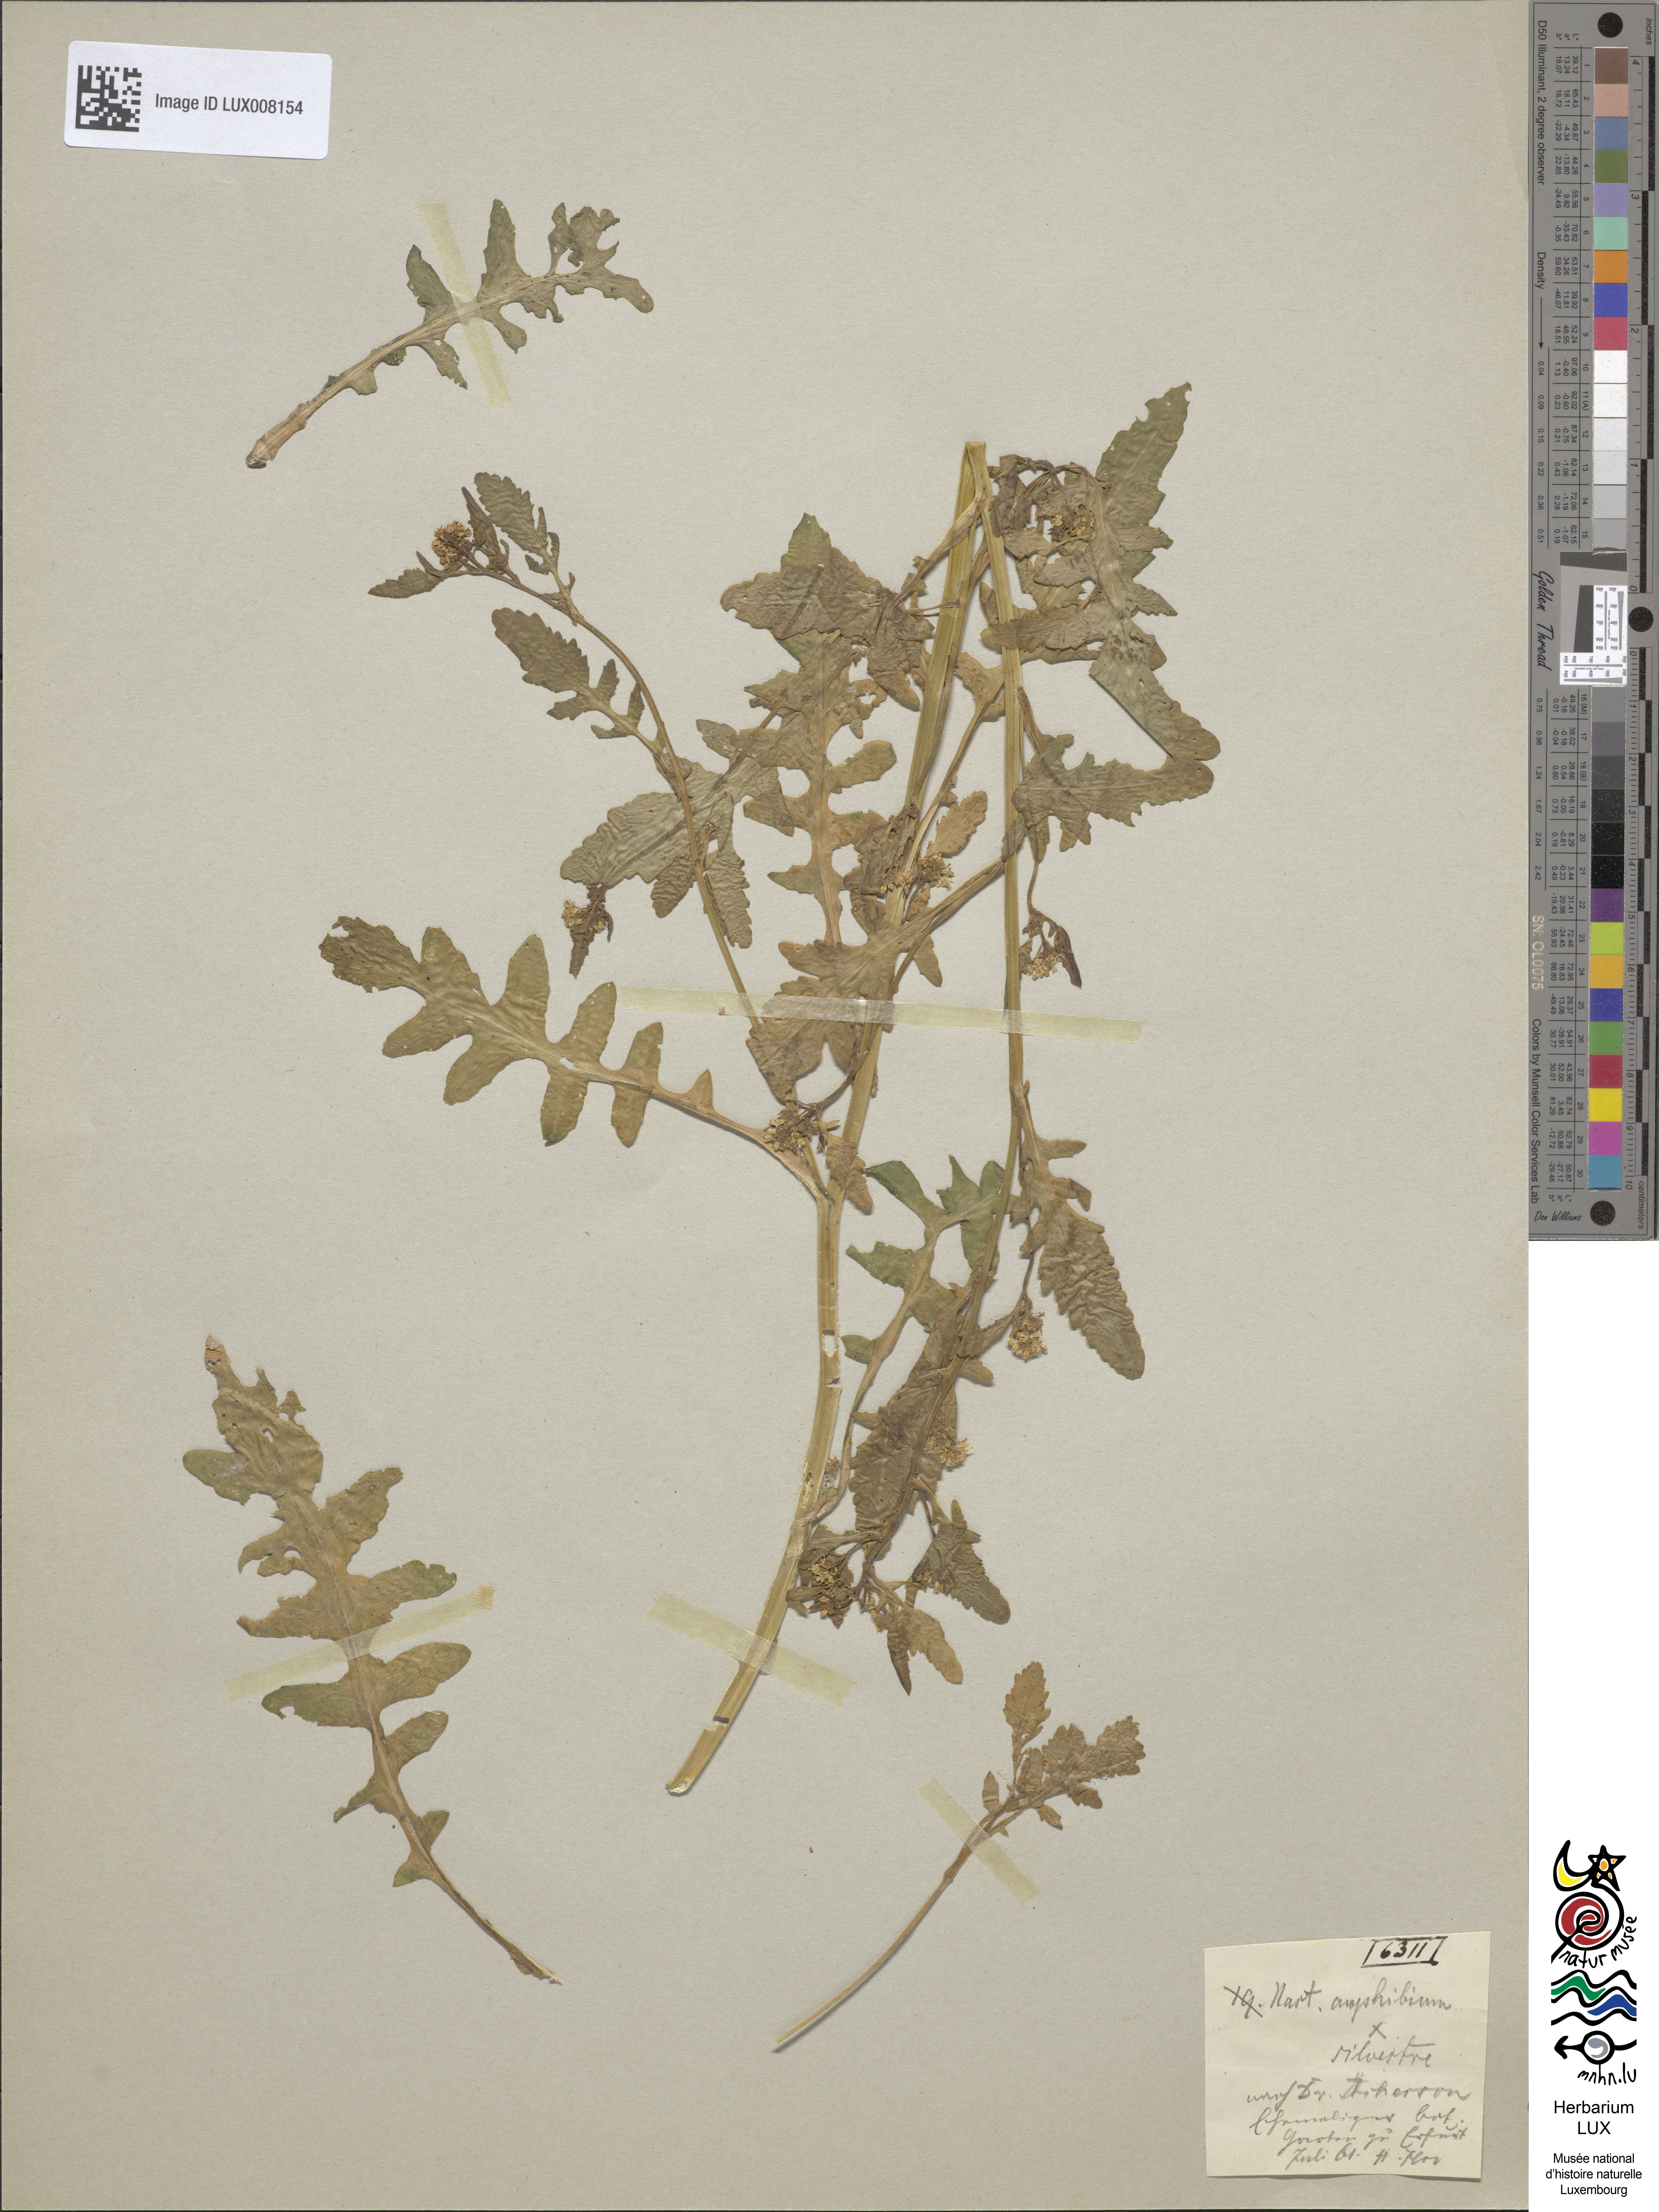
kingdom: Plantae
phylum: Tracheophyta
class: Magnoliopsida
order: Brassicales
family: Brassicaceae
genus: Rorippa
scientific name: Rorippa anceps
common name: Rorippa
